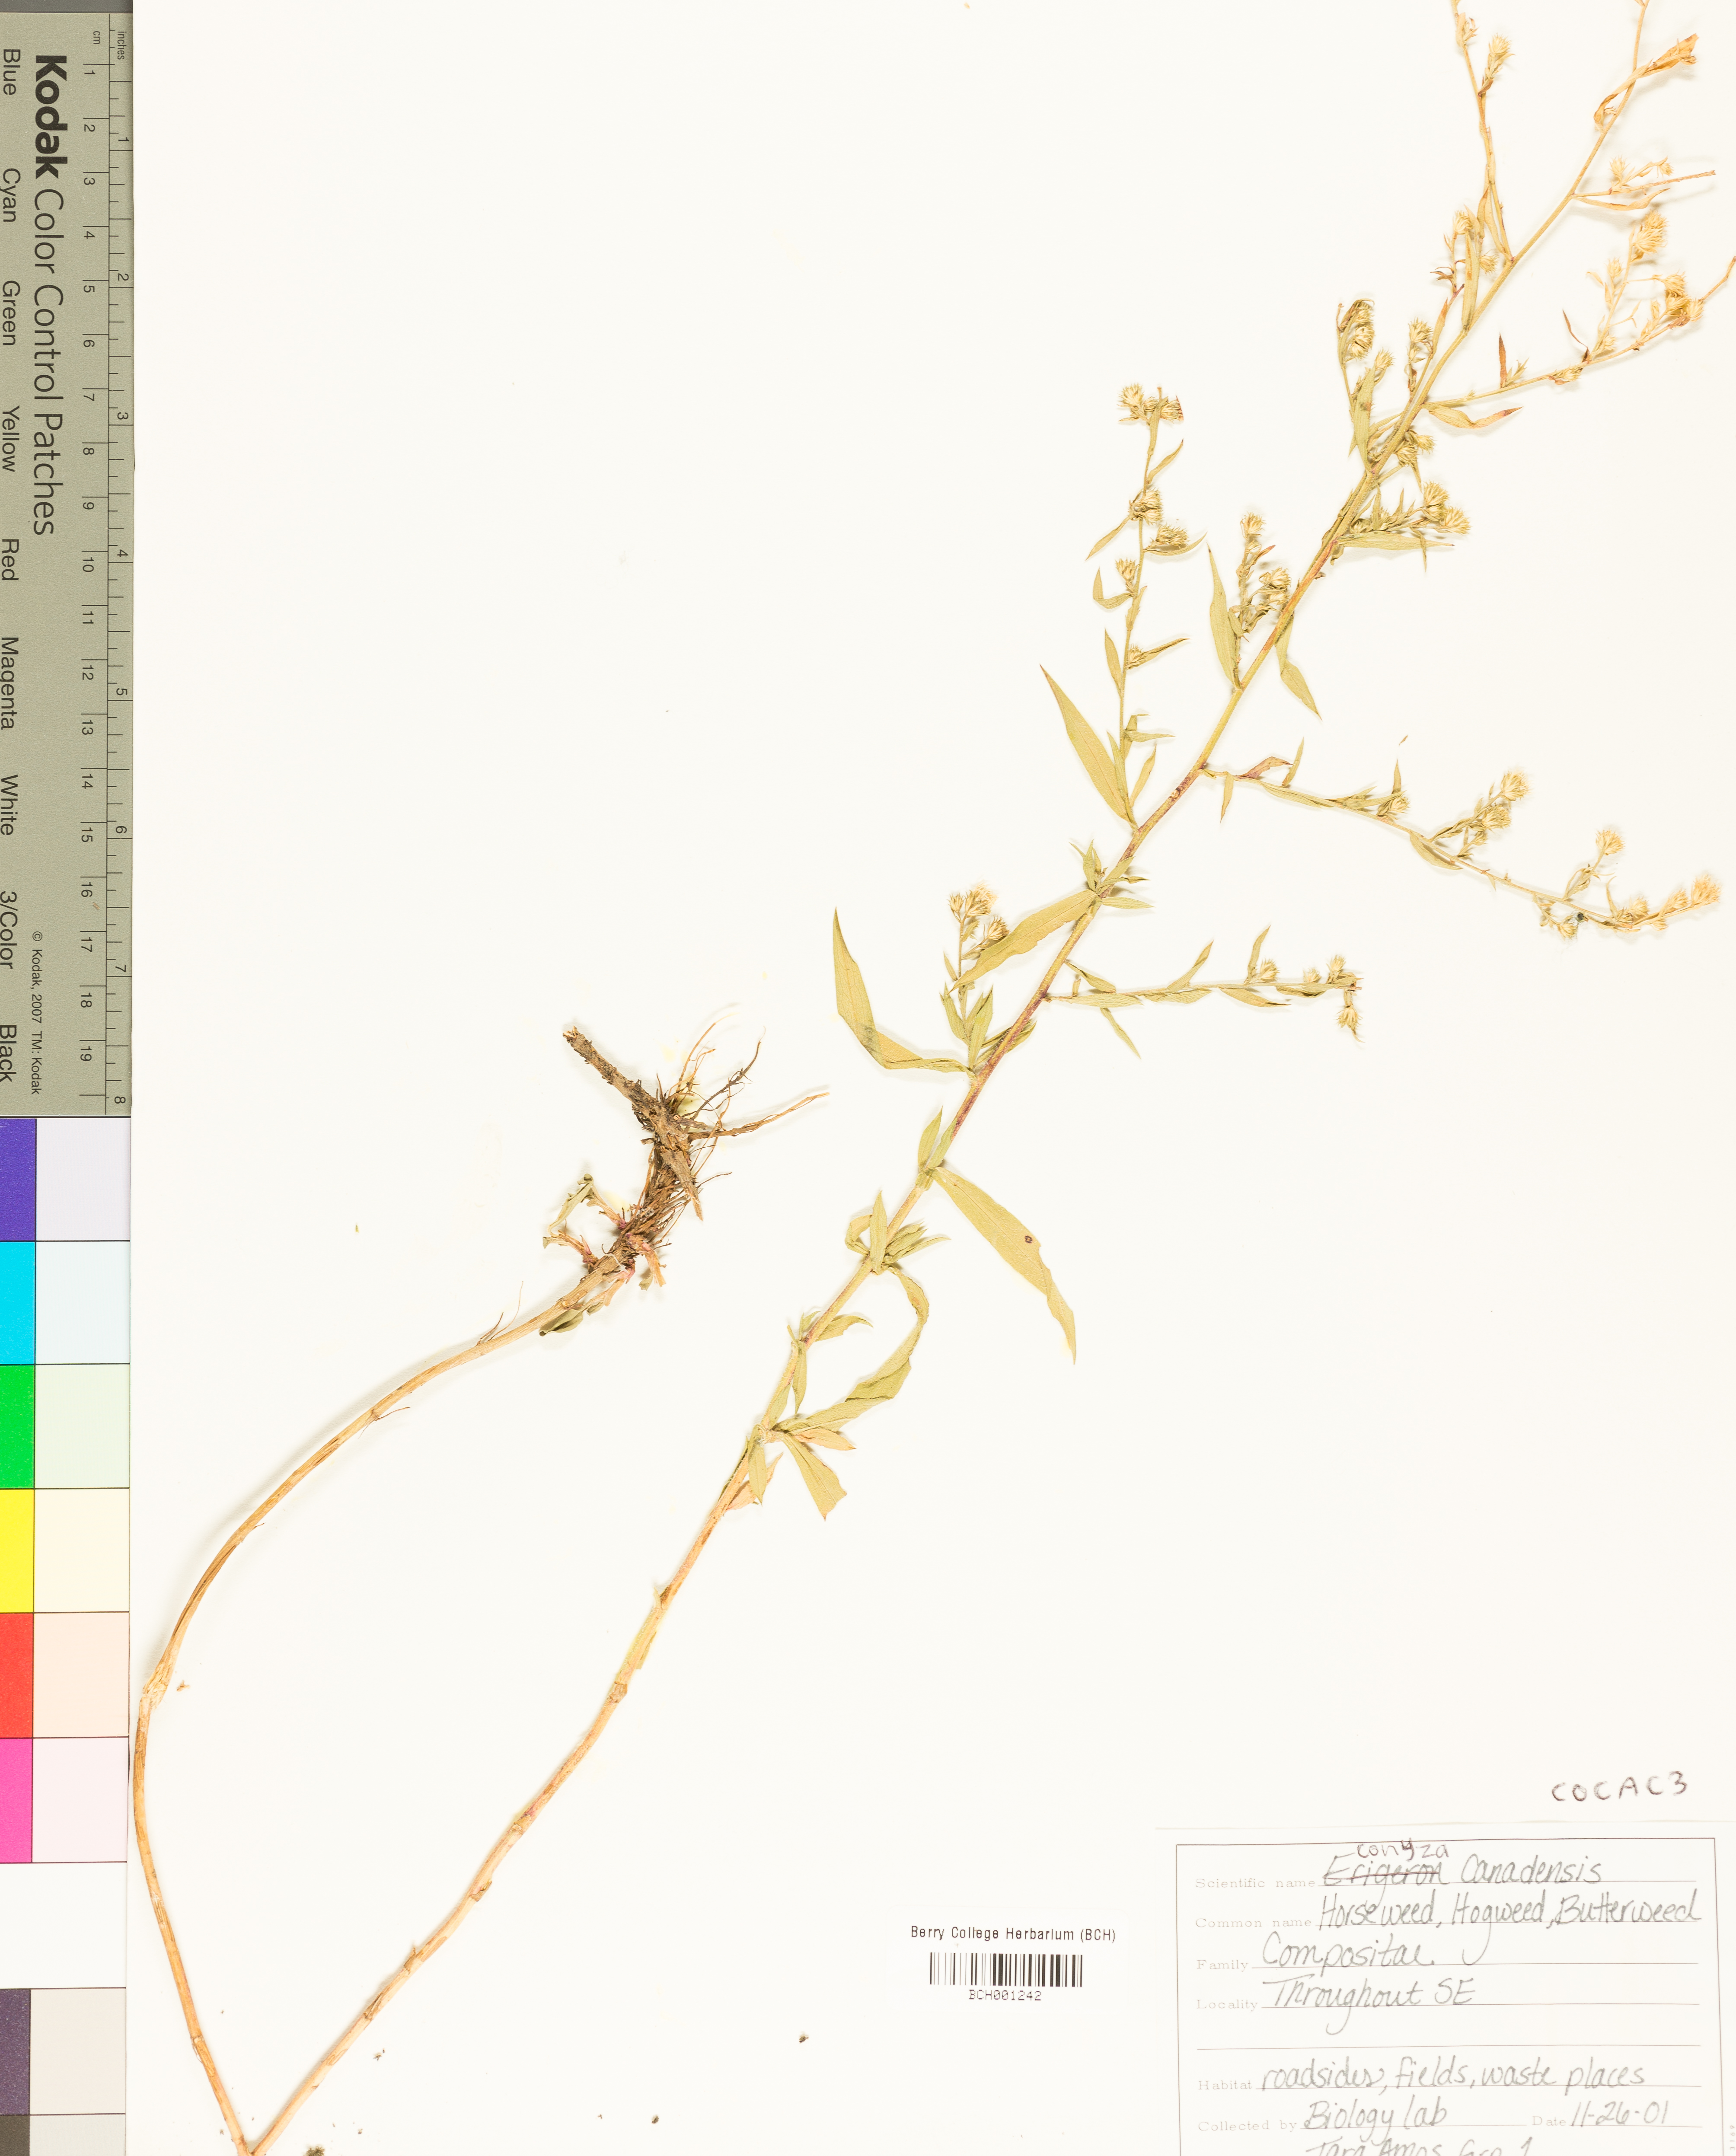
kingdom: Plantae
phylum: Tracheophyta
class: Magnoliopsida
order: Asterales
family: Asteraceae
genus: Erigeron
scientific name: Erigeron canadensis
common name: Canadian fleabane
